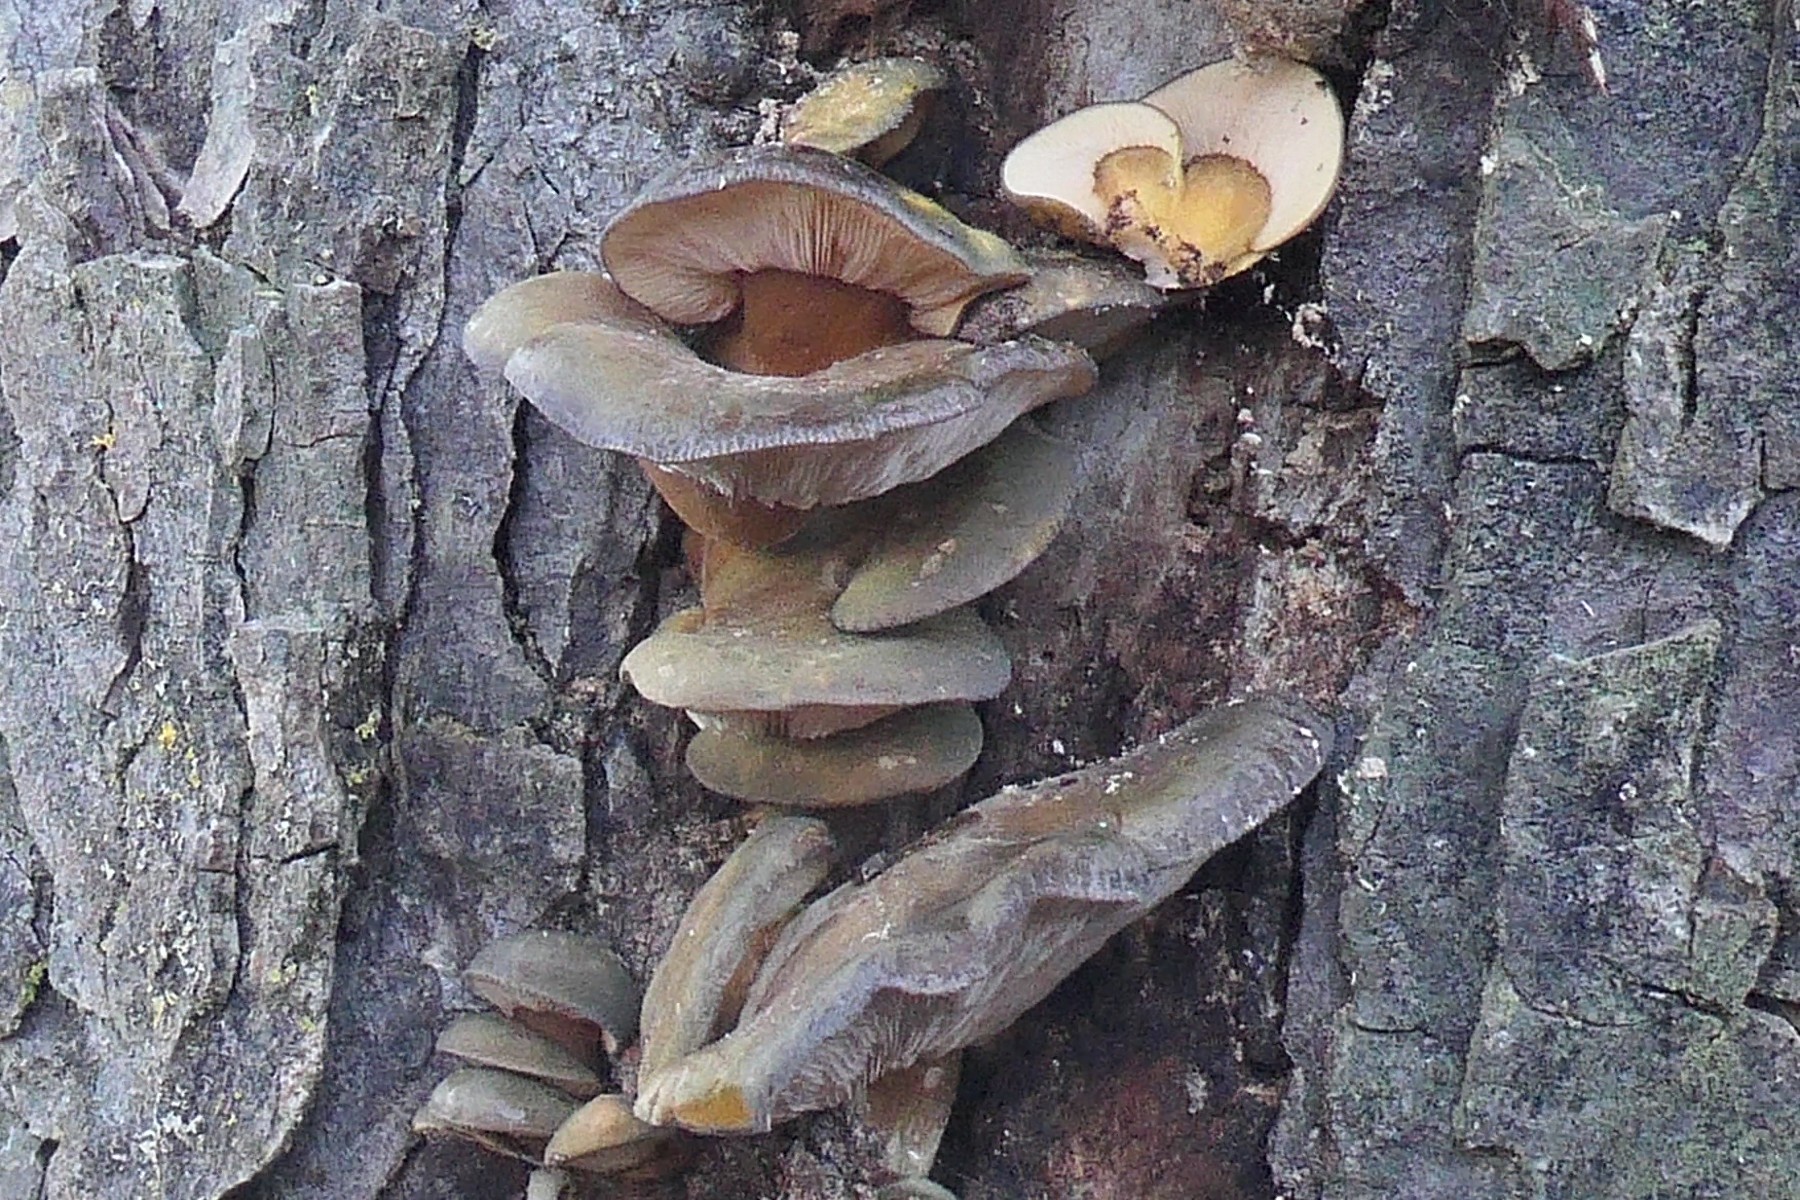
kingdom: Fungi
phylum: Basidiomycota
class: Agaricomycetes
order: Agaricales
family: Sarcomyxaceae
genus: Sarcomyxa
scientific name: Sarcomyxa serotina
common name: gummihat
